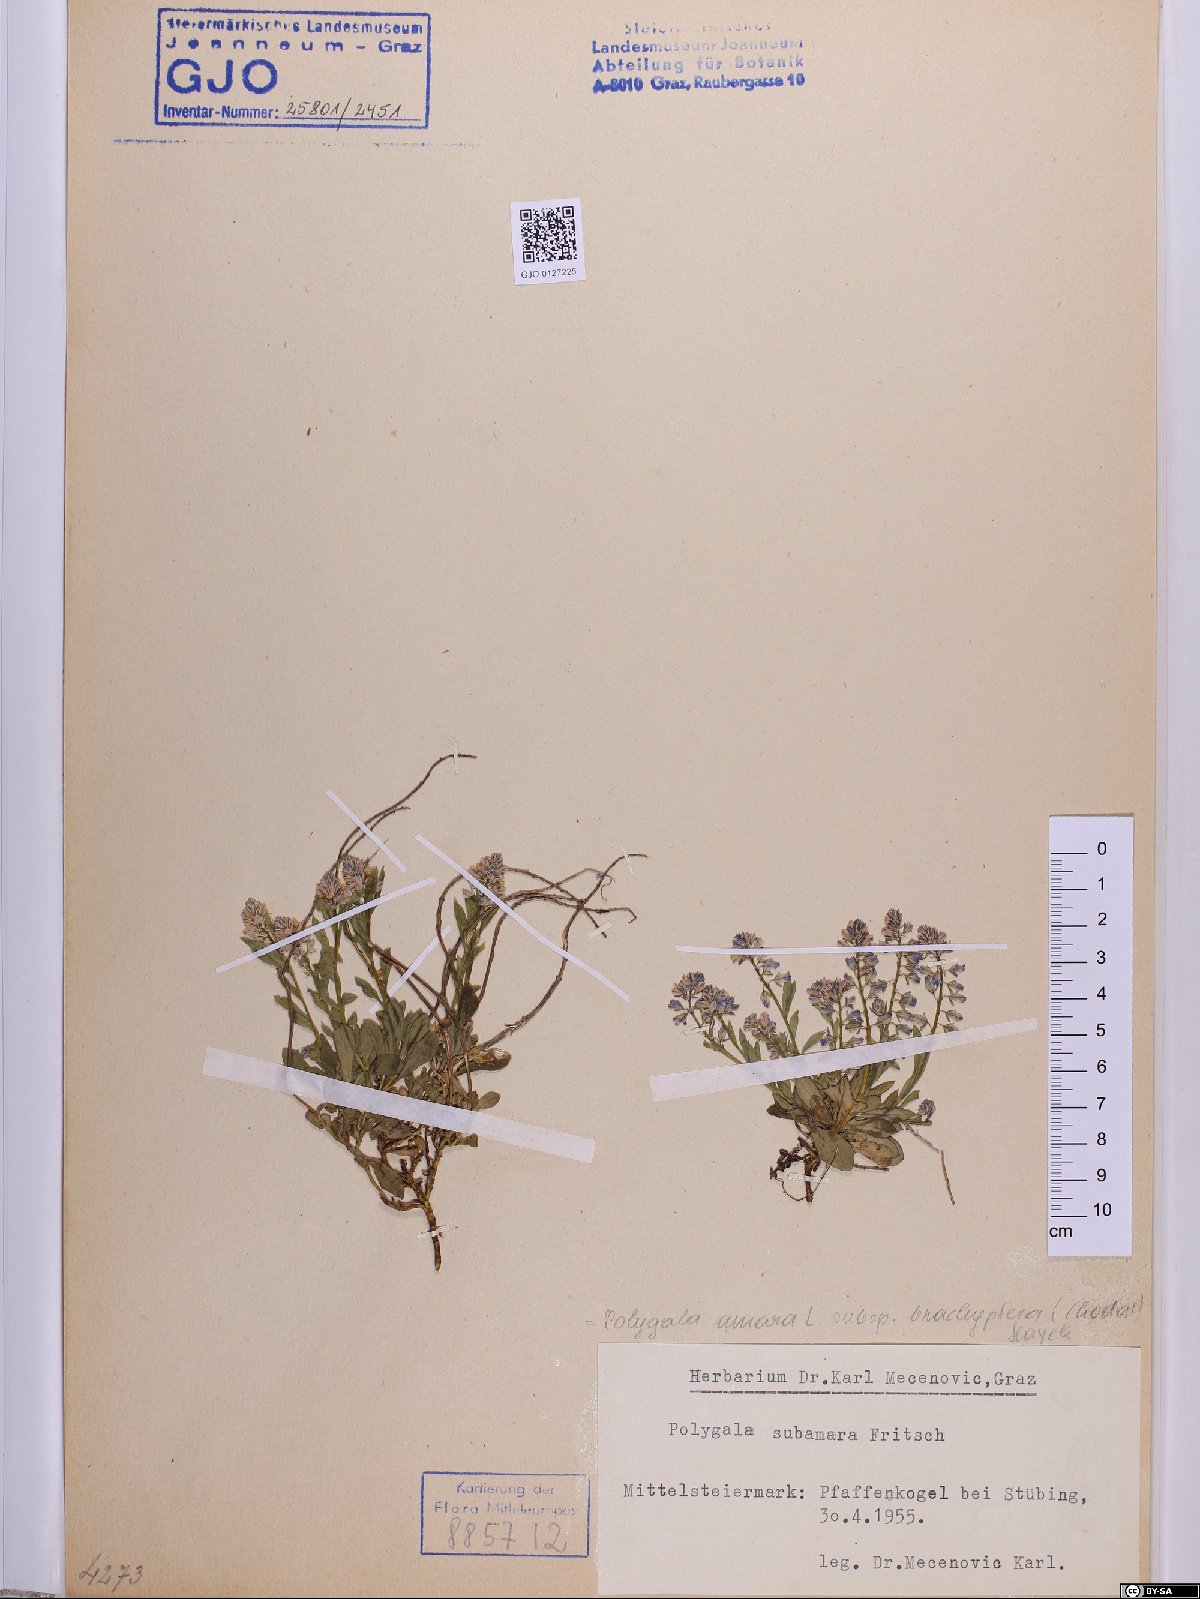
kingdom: Plantae
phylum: Tracheophyta
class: Magnoliopsida
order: Fabales
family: Polygalaceae
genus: Polygala
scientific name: Polygala amara
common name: Milkwort
